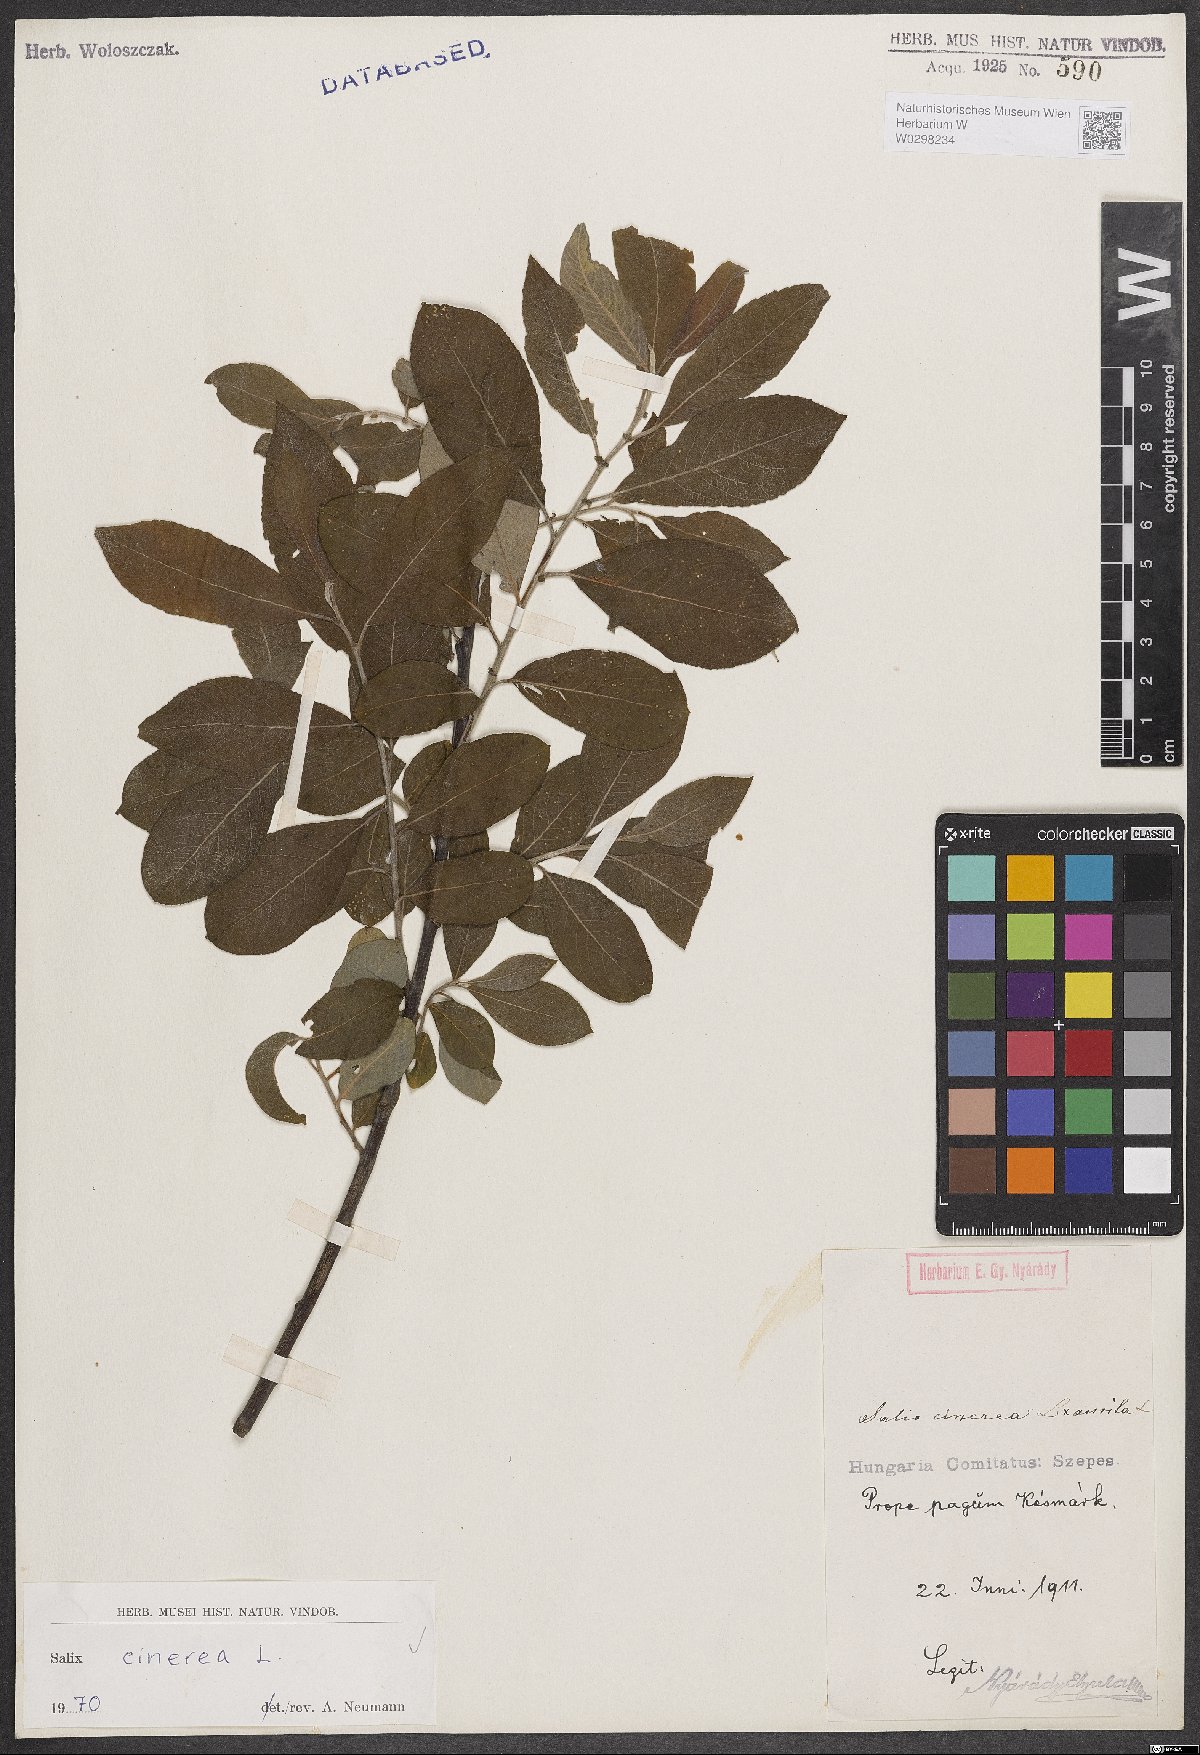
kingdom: Plantae
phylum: Tracheophyta
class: Magnoliopsida
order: Malpighiales
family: Salicaceae
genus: Salix
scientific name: Salix cinerea
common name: Common sallow
